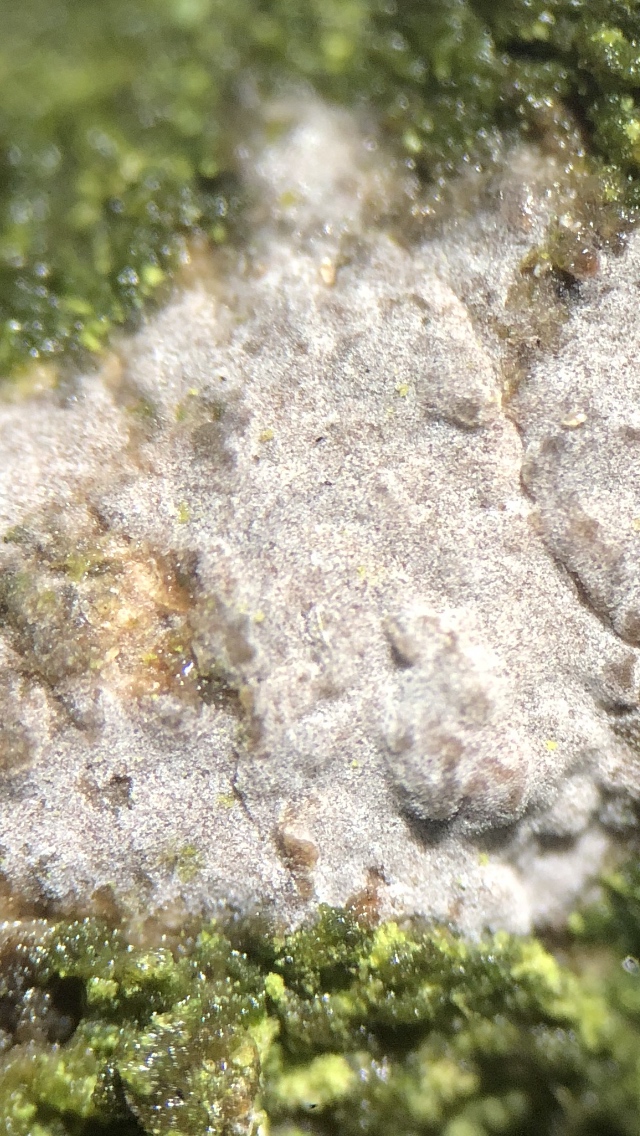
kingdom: Fungi
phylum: Basidiomycota
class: Agaricomycetes
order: Russulales
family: Peniophoraceae
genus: Peniophora
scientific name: Peniophora lycii
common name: grynet voksskind
